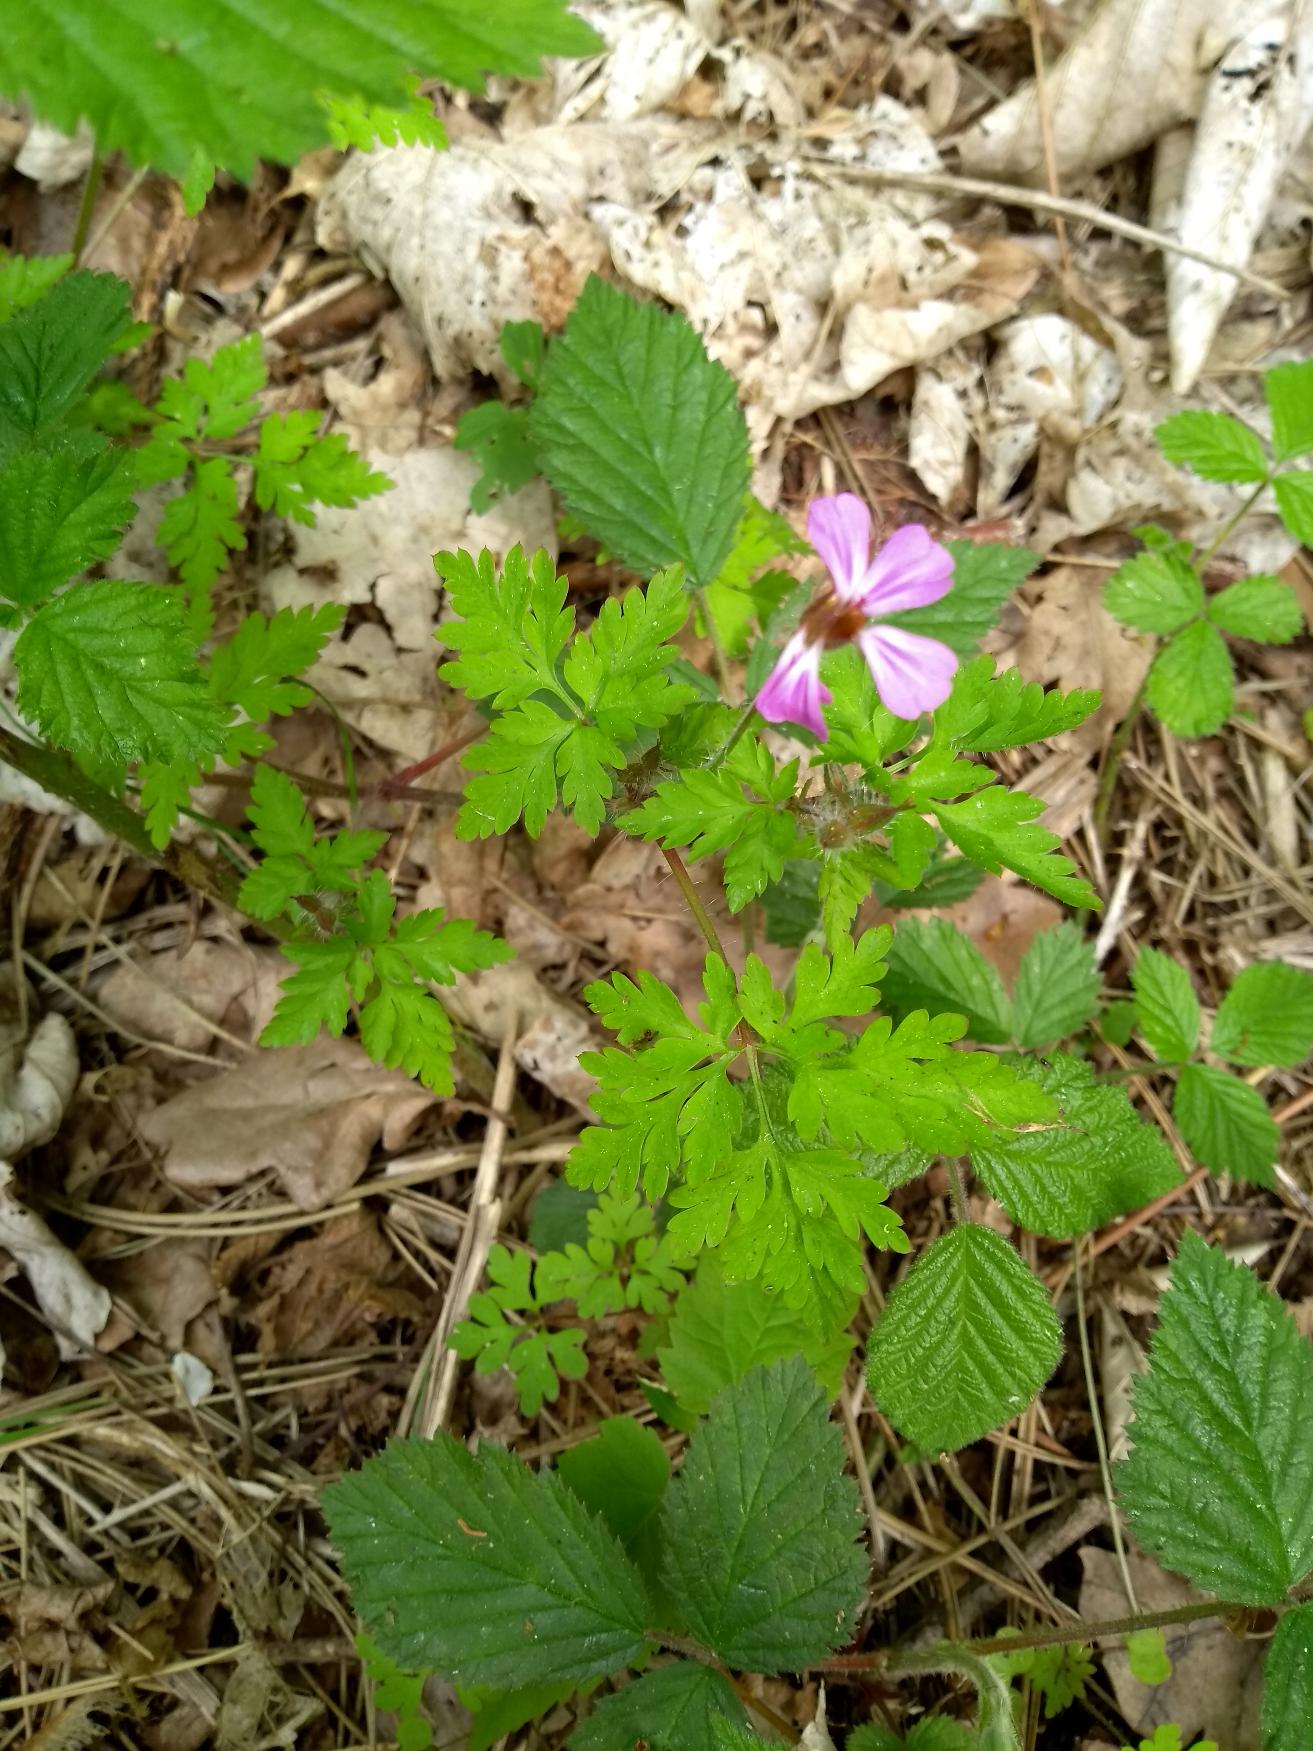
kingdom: Plantae
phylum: Tracheophyta
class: Magnoliopsida
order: Geraniales
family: Geraniaceae
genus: Geranium
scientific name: Geranium robertianum
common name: Stinkende storkenæb
